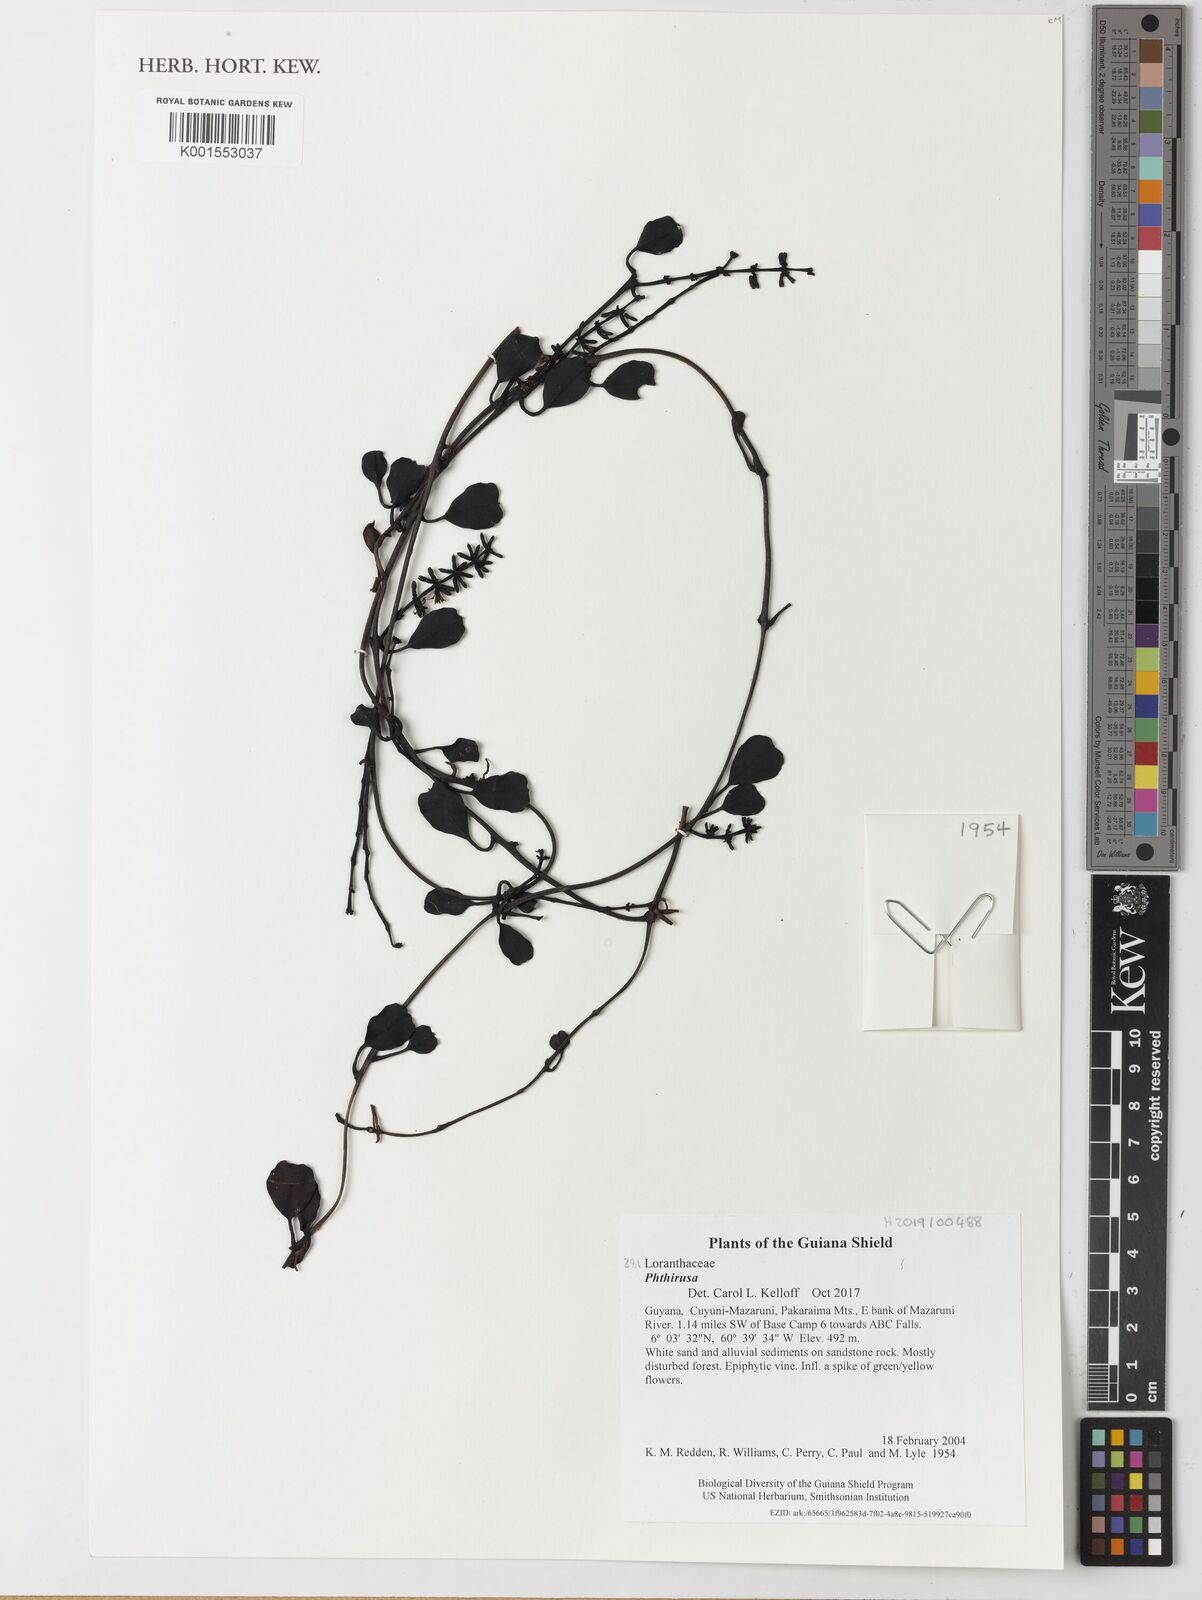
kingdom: Plantae
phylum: Tracheophyta
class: Magnoliopsida
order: Santalales
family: Loranthaceae
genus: Phthirusa
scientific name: Phthirusa
